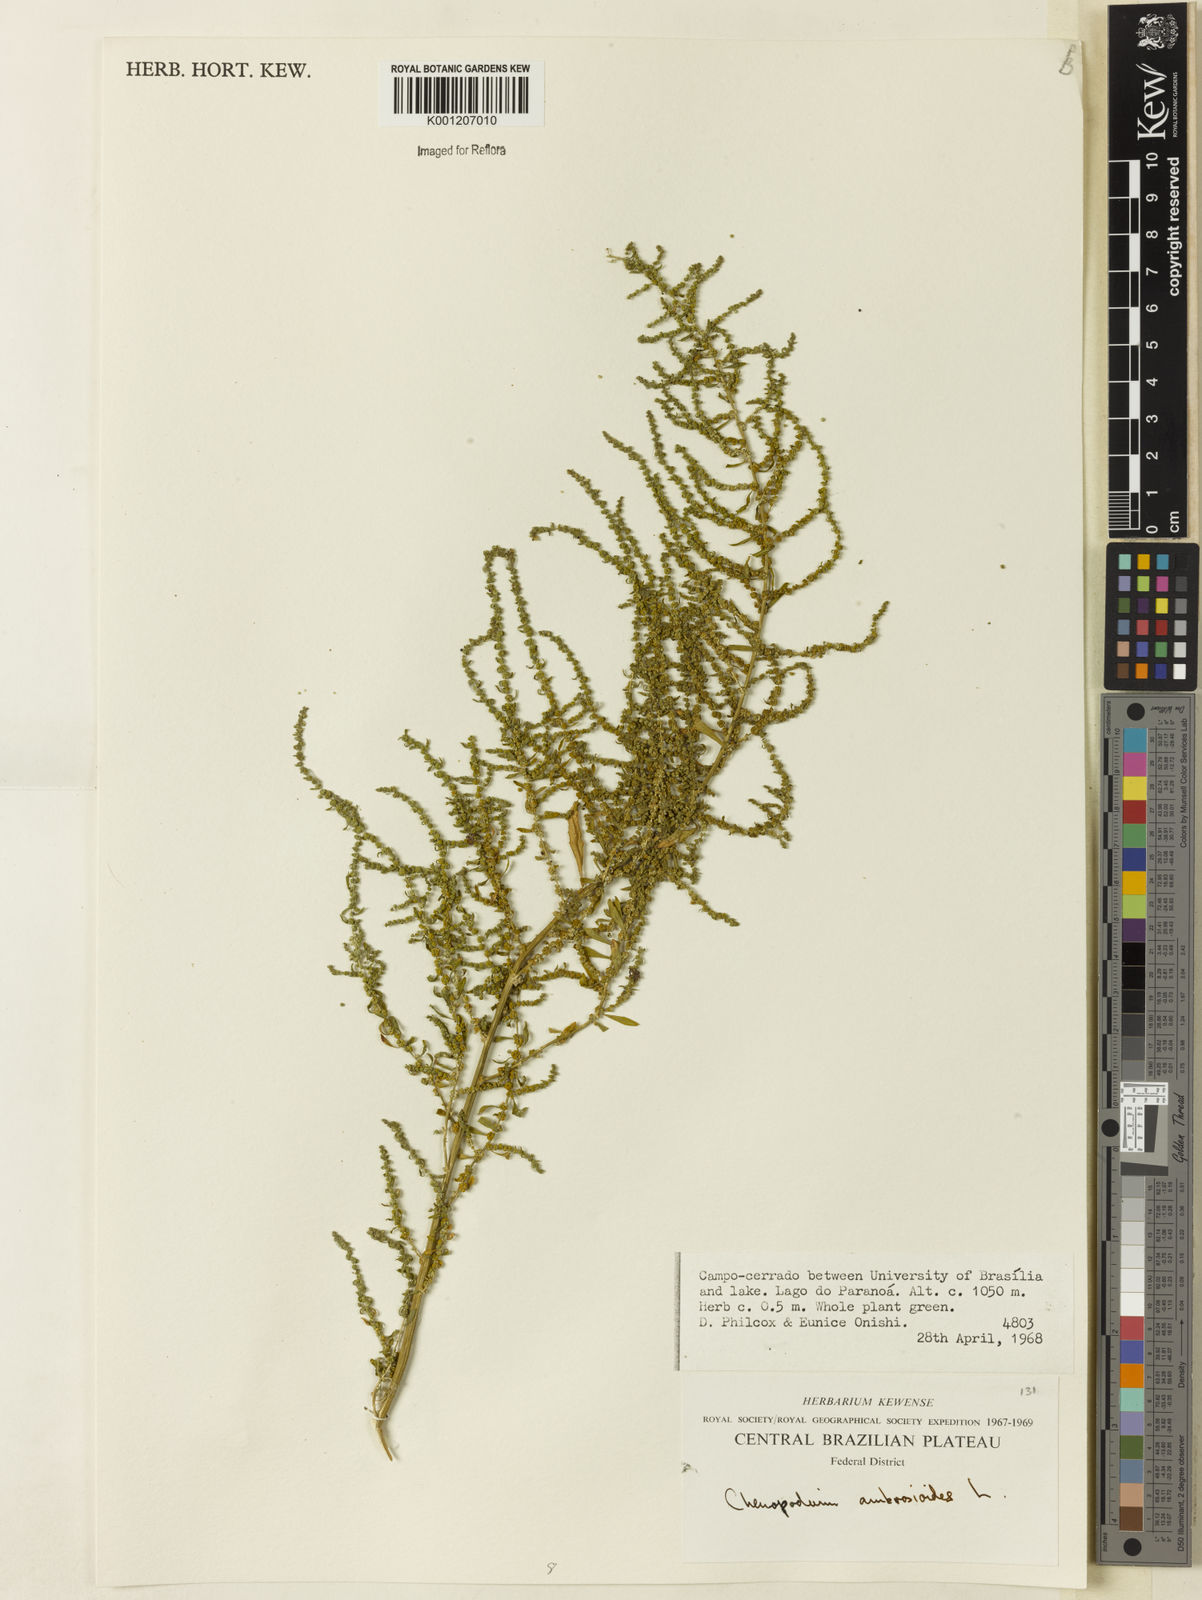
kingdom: Plantae
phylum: Tracheophyta
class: Magnoliopsida
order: Caryophyllales
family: Amaranthaceae
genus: Dysphania
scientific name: Dysphania ambrosioides
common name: Wormseed
